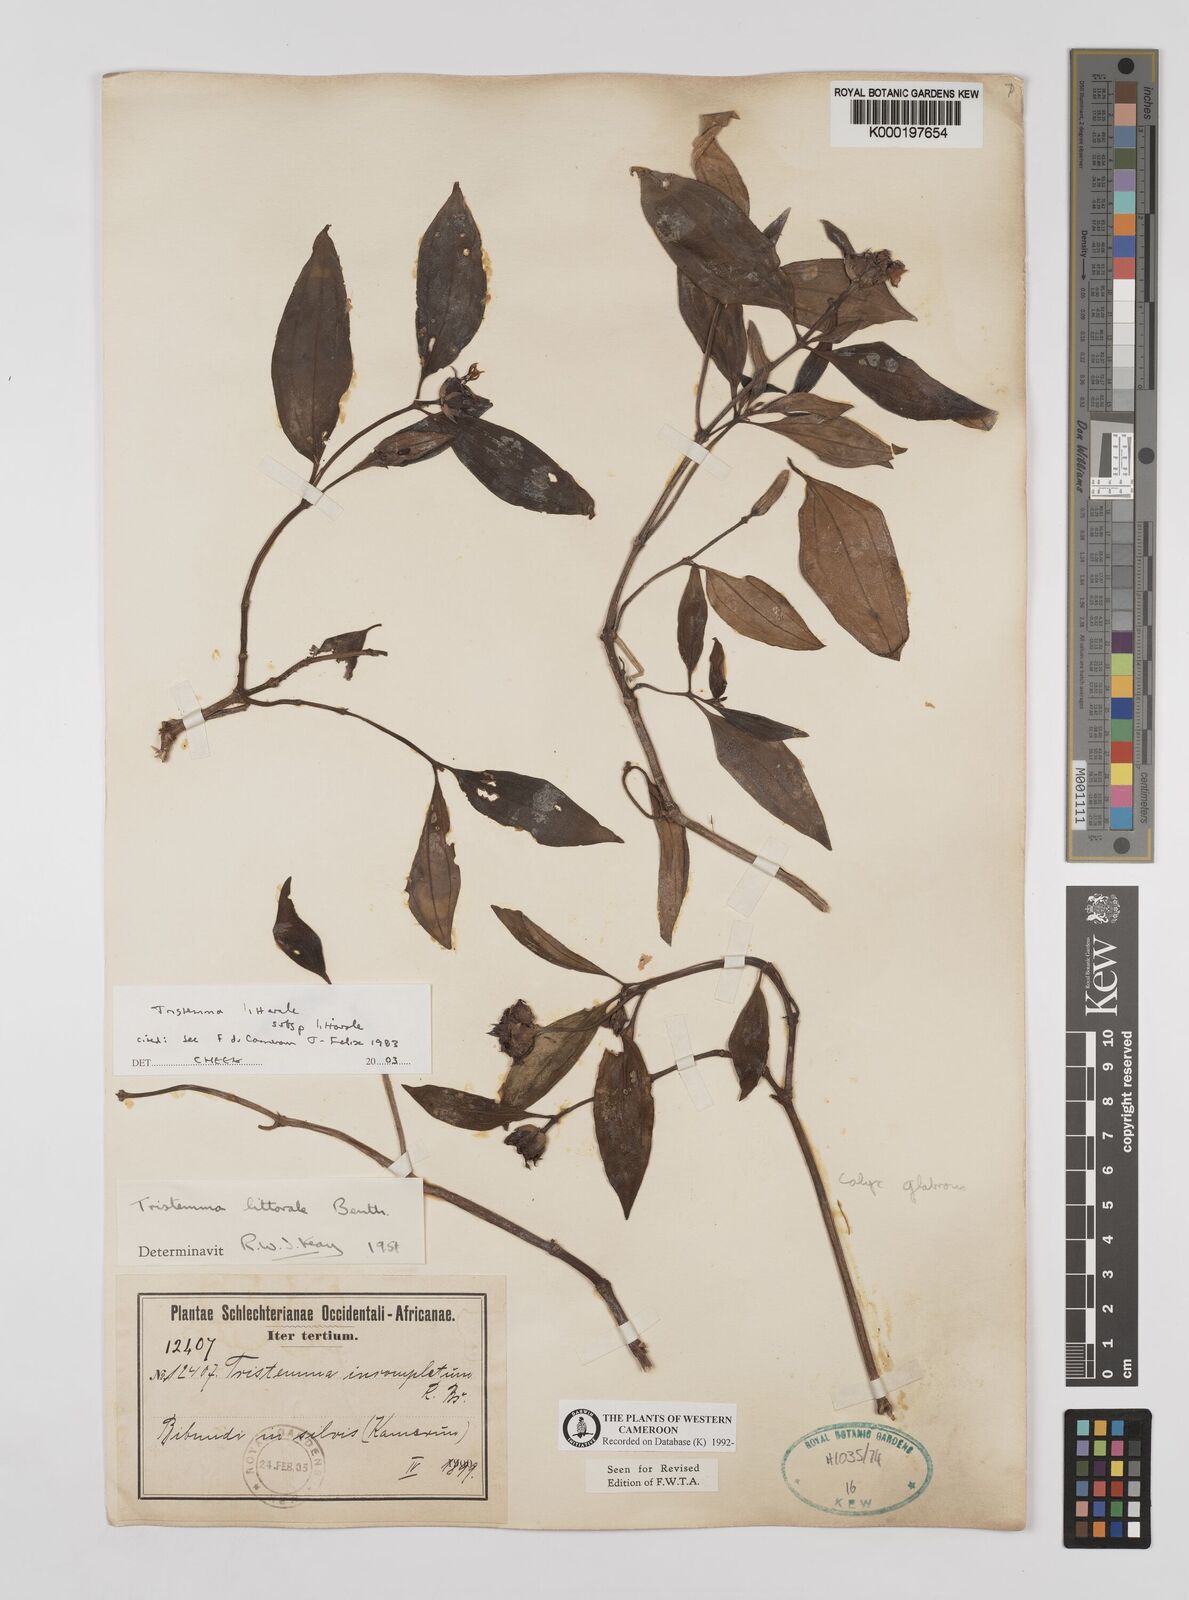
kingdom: Plantae
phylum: Tracheophyta
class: Magnoliopsida
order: Myrtales
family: Melastomataceae
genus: Tristemma
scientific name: Tristemma littorale
